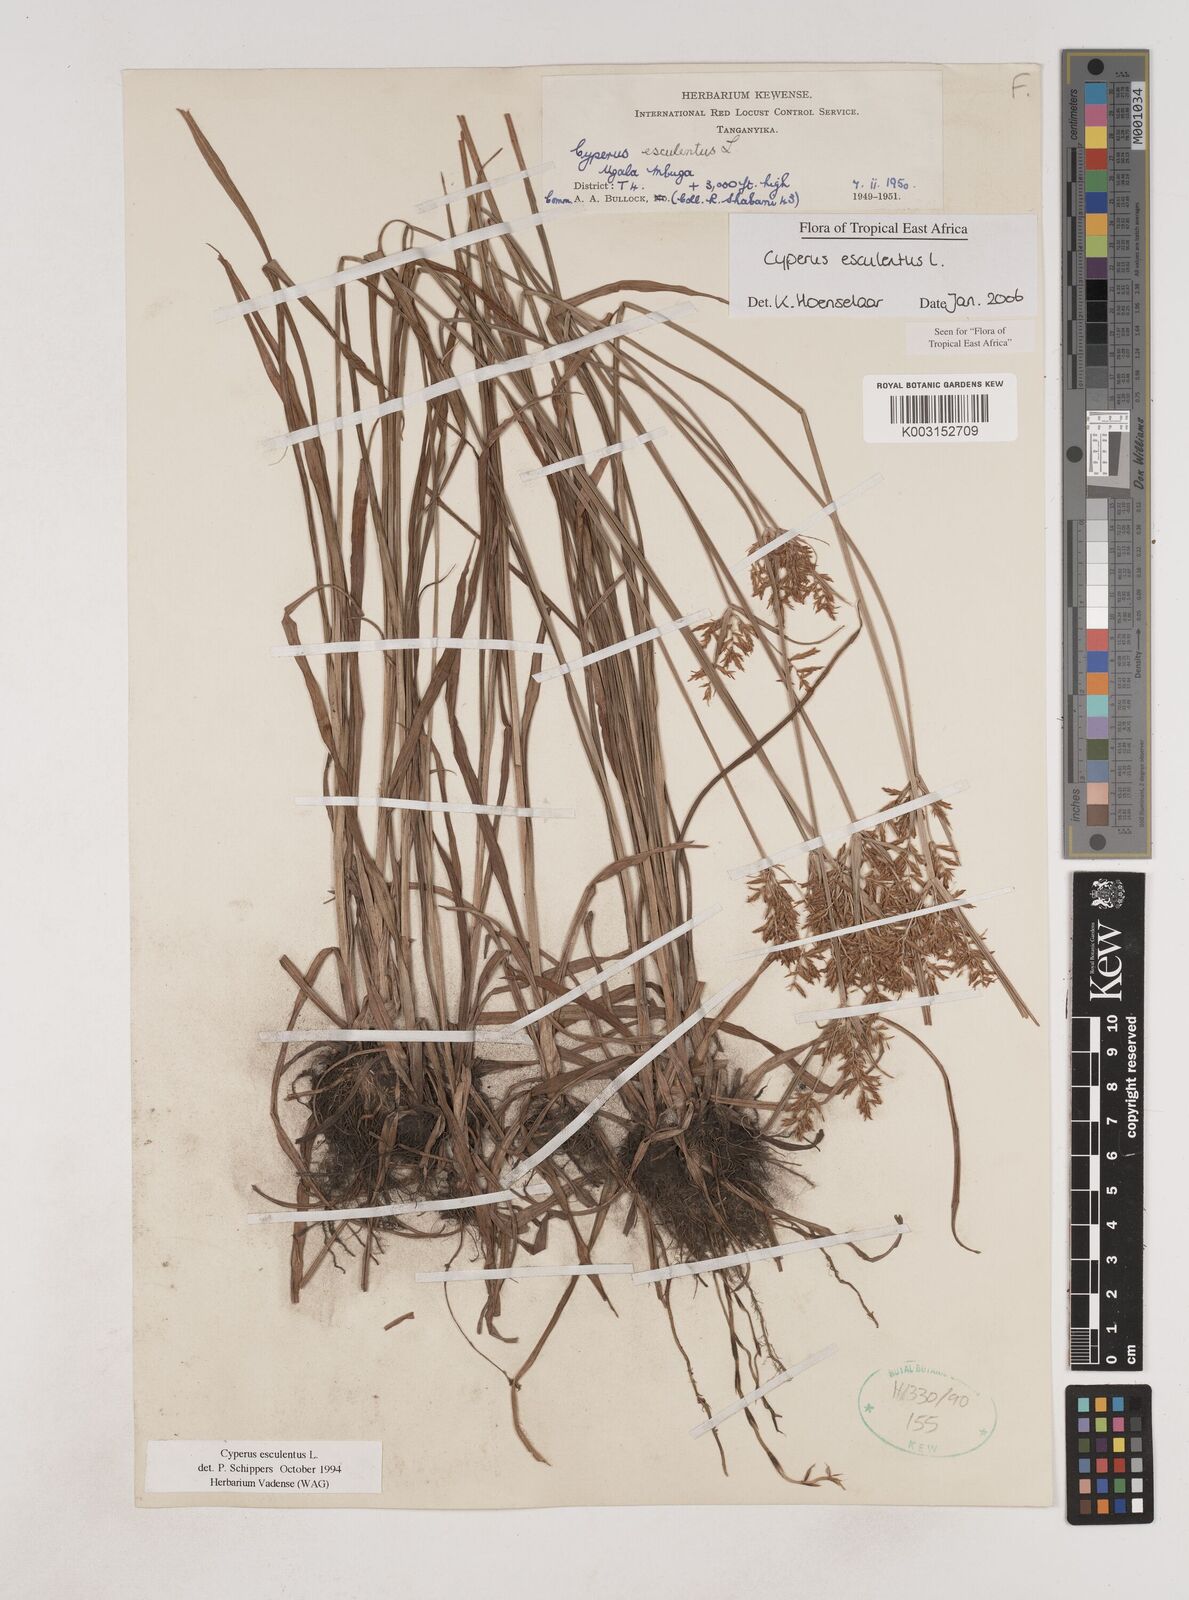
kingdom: Plantae
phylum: Tracheophyta
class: Liliopsida
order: Poales
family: Cyperaceae
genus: Cyperus
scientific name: Cyperus esculentus
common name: Yellow nutsedge
